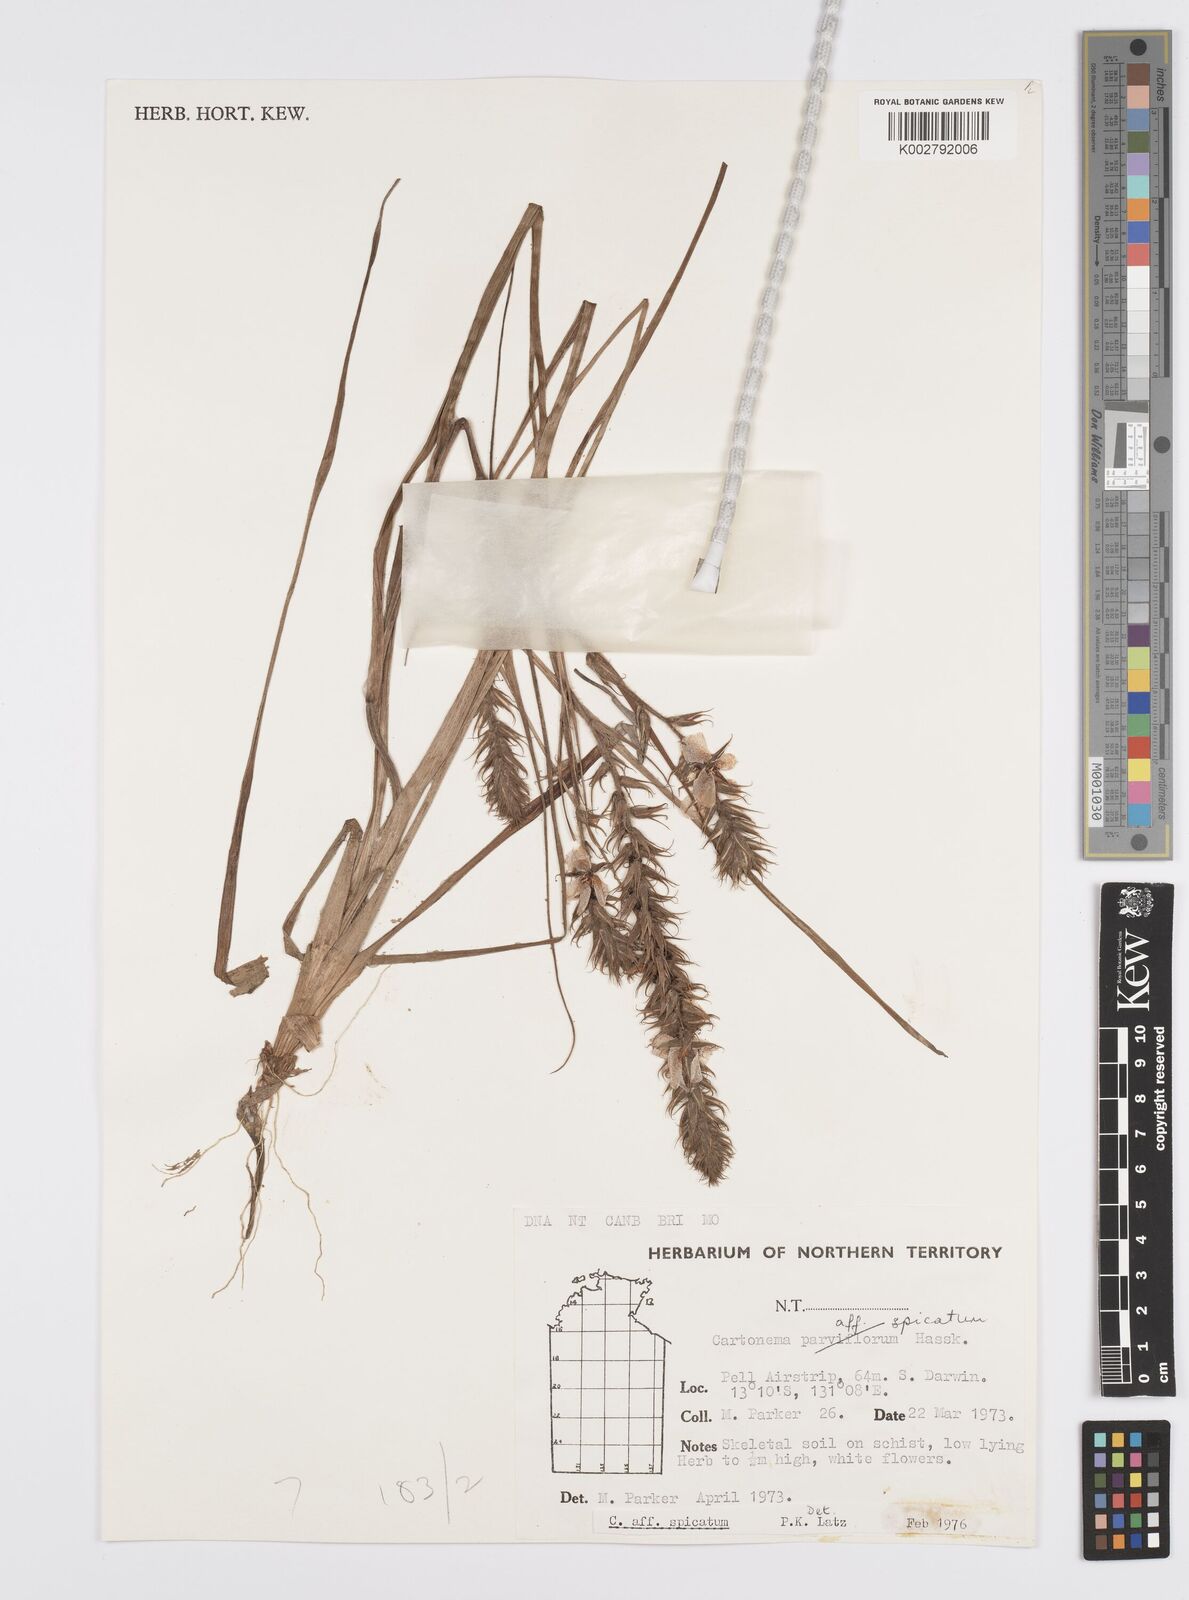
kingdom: Plantae
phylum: Tracheophyta
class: Liliopsida
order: Commelinales
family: Commelinaceae
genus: Cartonema
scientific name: Cartonema spicatum
